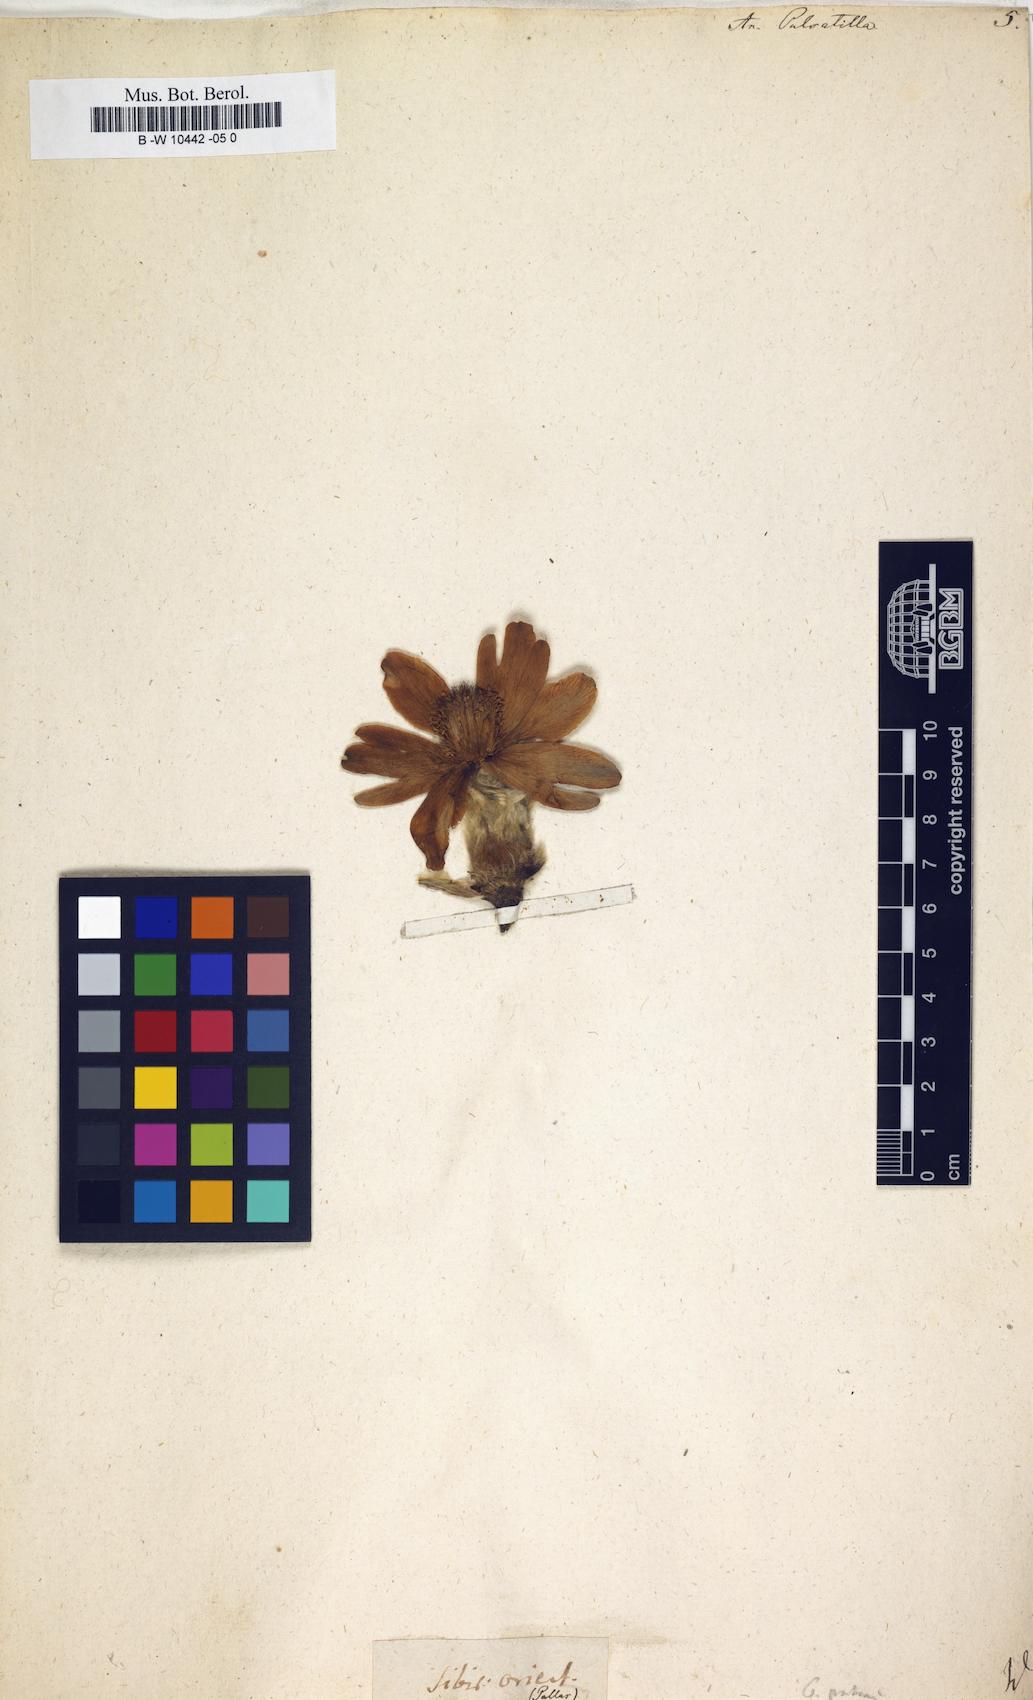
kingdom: Plantae
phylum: Tracheophyta
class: Magnoliopsida
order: Ranunculales
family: Ranunculaceae
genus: Pulsatilla
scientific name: Pulsatilla vulgaris
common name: Pasqueflower
